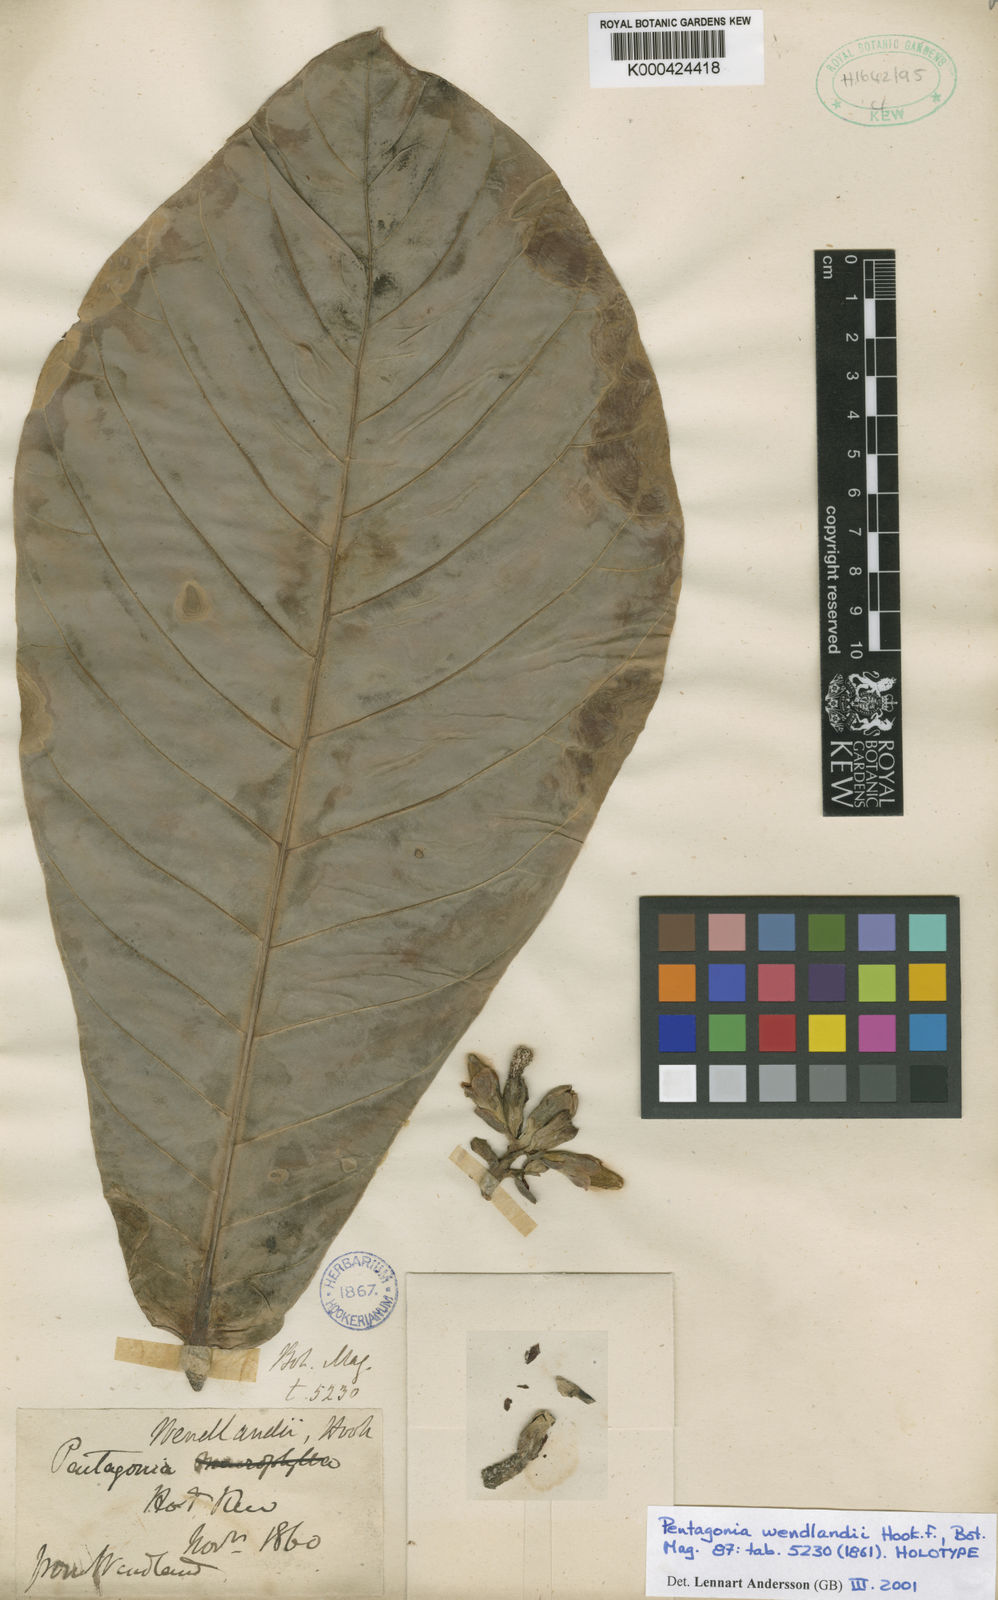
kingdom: Plantae
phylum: Tracheophyta
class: Magnoliopsida
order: Gentianales
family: Rubiaceae
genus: Pentagonia
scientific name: Pentagonia wendlandii
